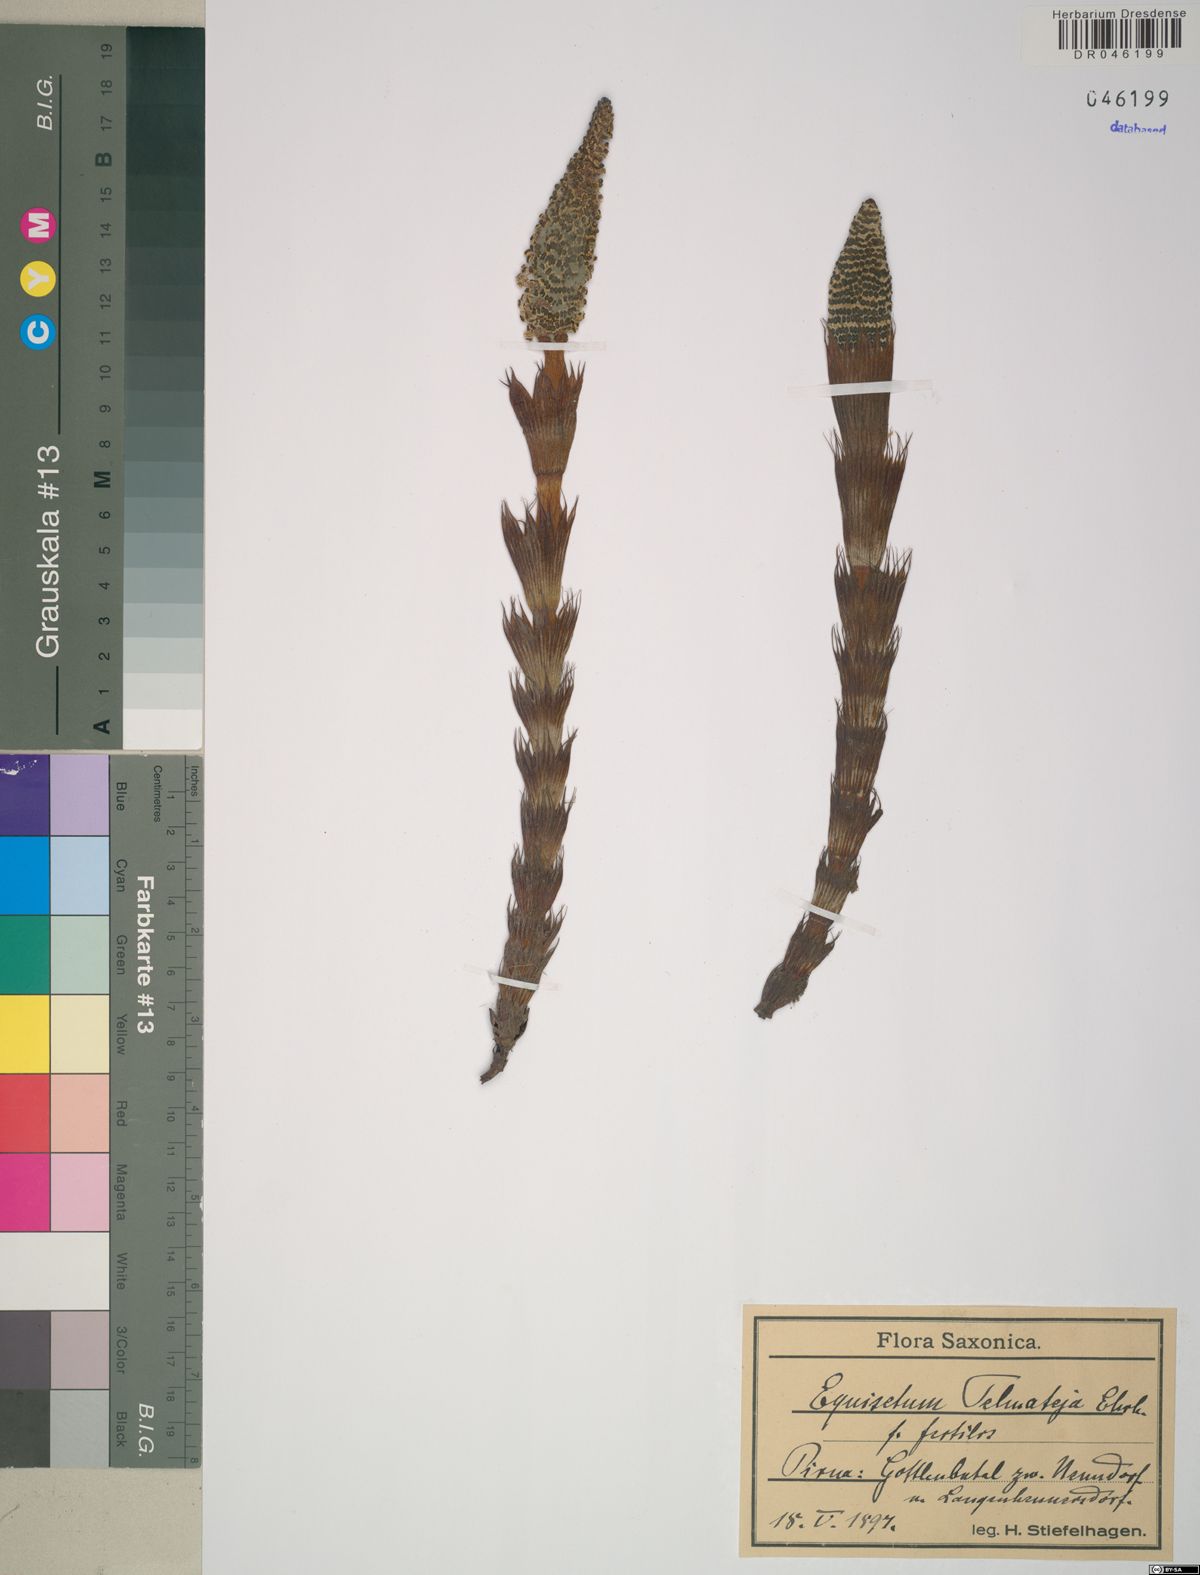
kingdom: Plantae
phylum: Tracheophyta
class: Polypodiopsida
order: Equisetales
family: Equisetaceae
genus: Equisetum
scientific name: Equisetum telmateia
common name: Great horsetail
